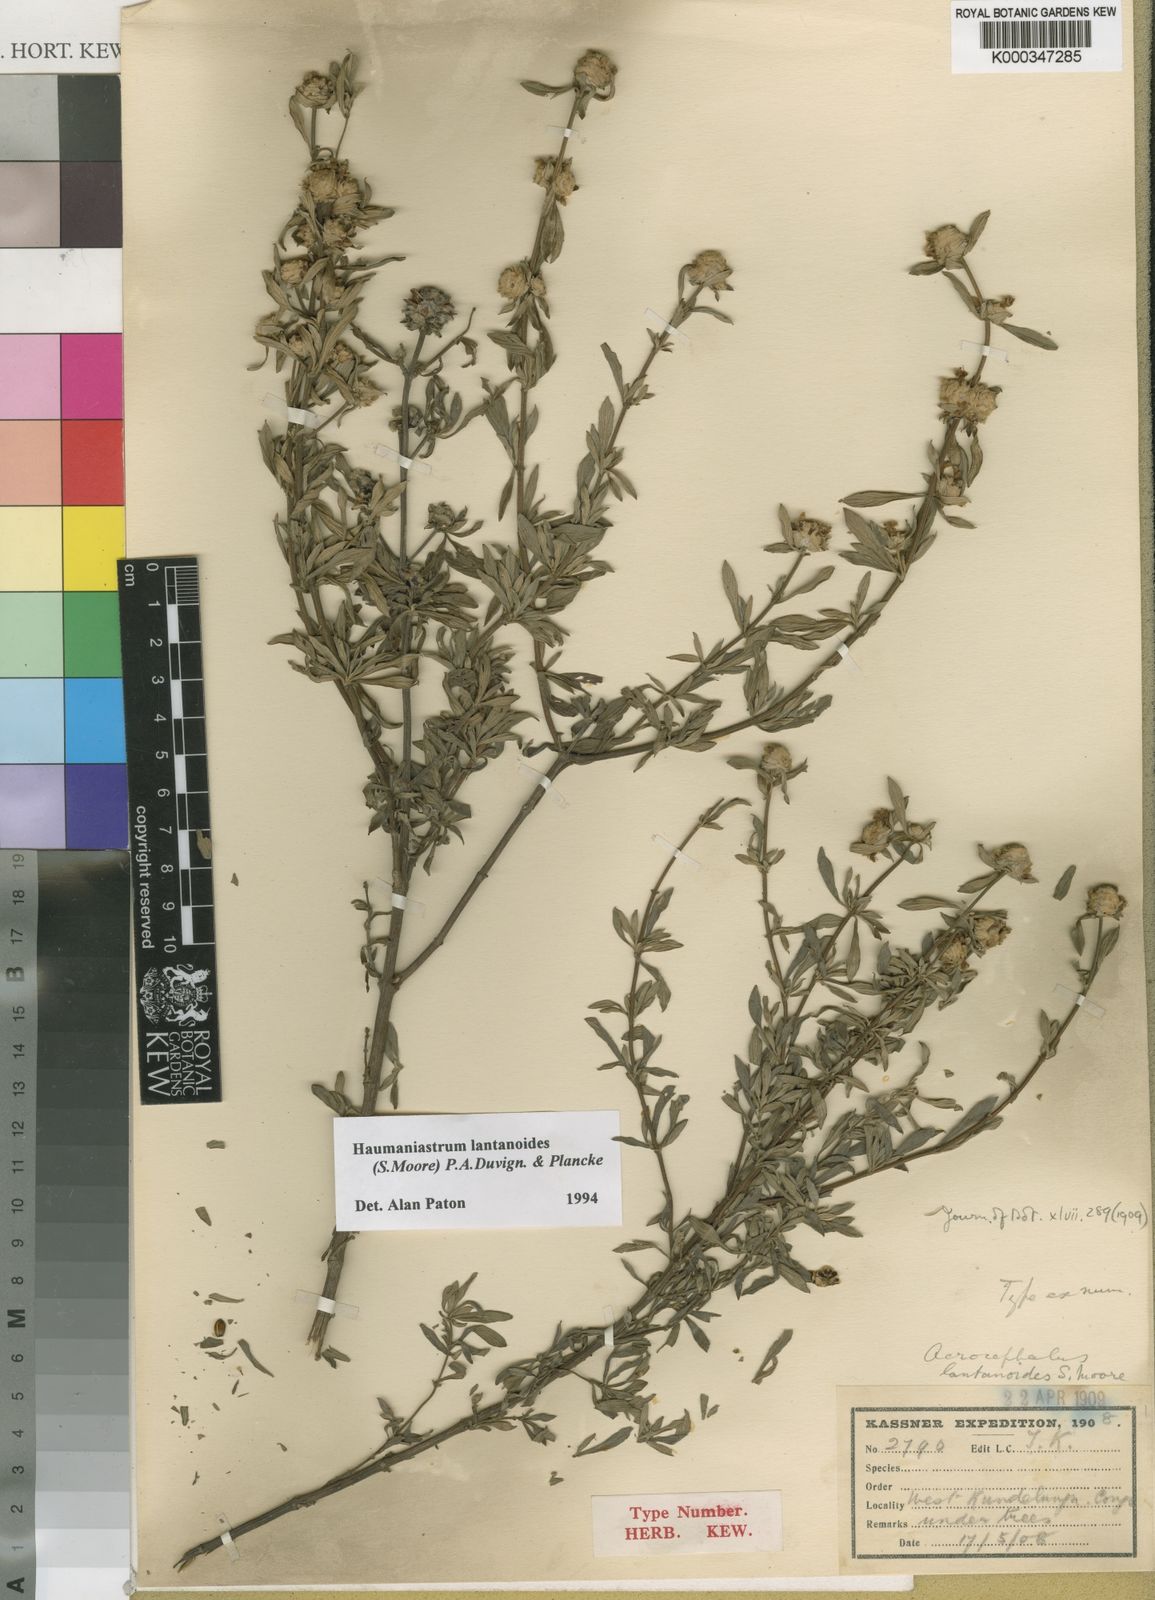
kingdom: Plantae
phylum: Tracheophyta
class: Magnoliopsida
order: Lamiales
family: Lamiaceae
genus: Haumaniastrum
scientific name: Haumaniastrum lantanoides
